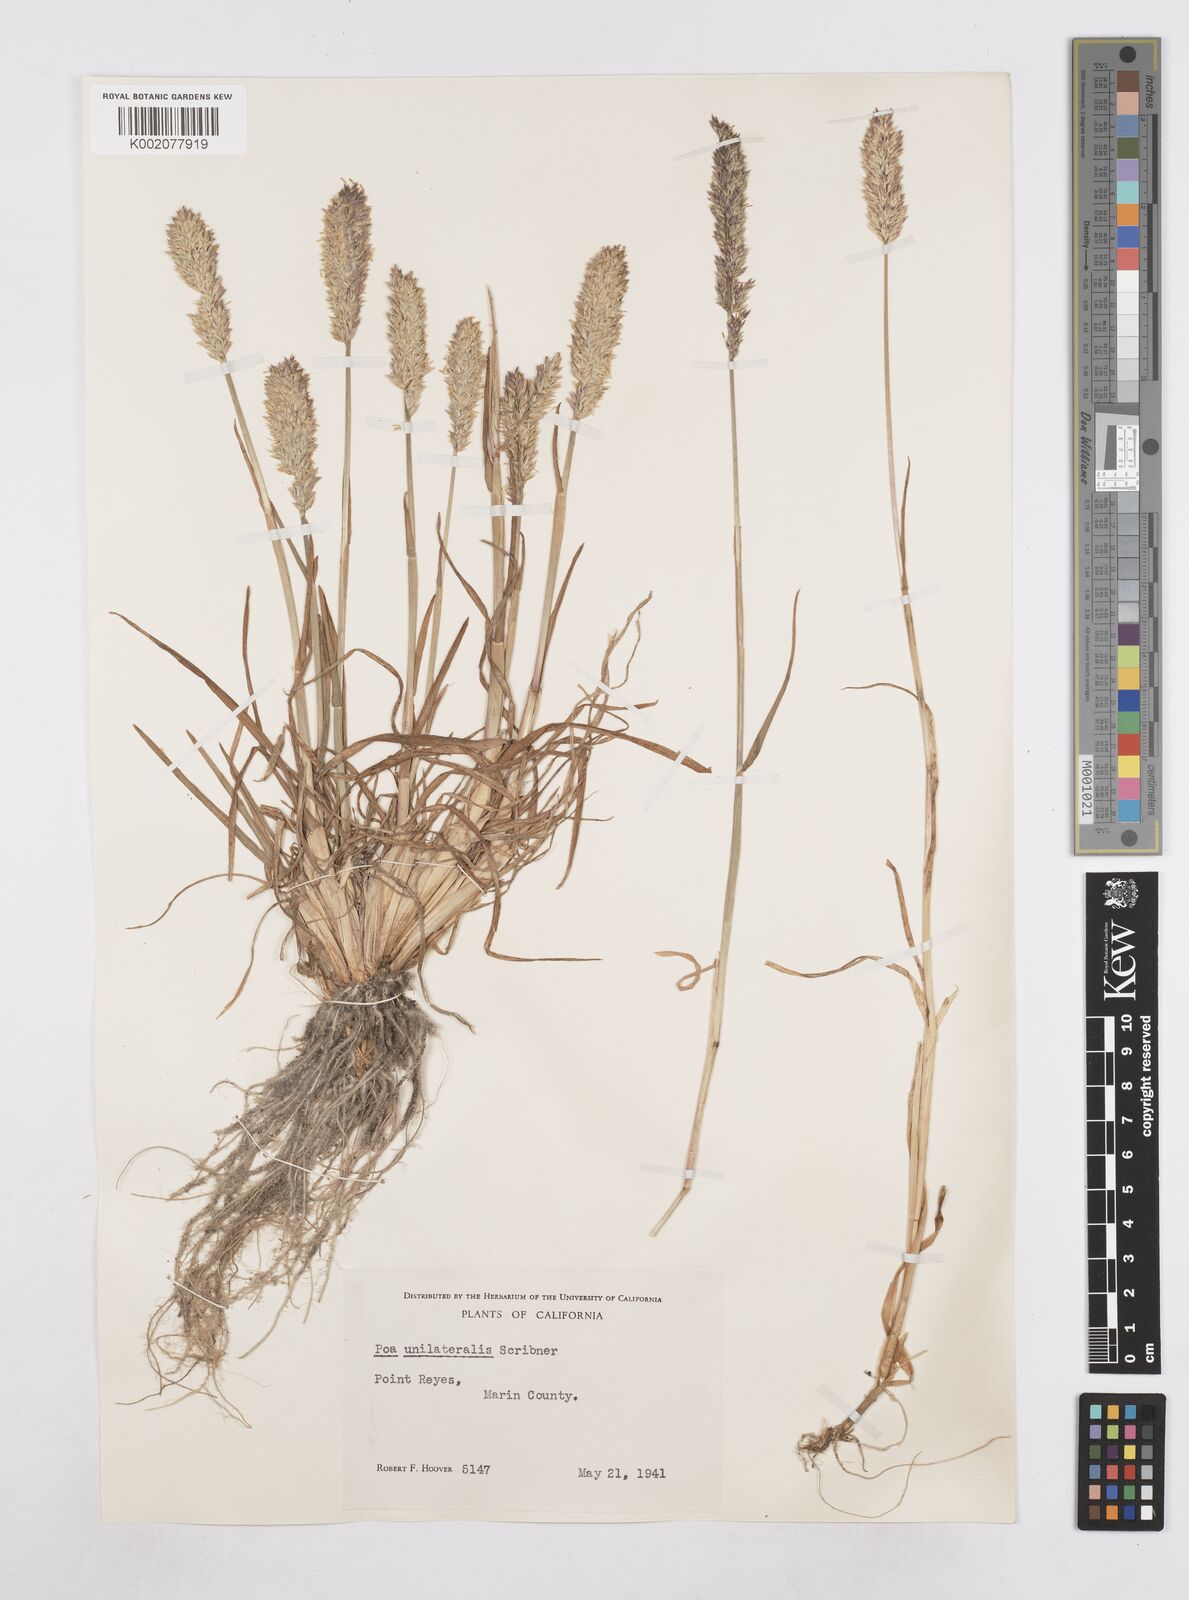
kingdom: Plantae
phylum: Tracheophyta
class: Liliopsida
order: Poales
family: Poaceae
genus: Poa
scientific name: Poa unilateralis
